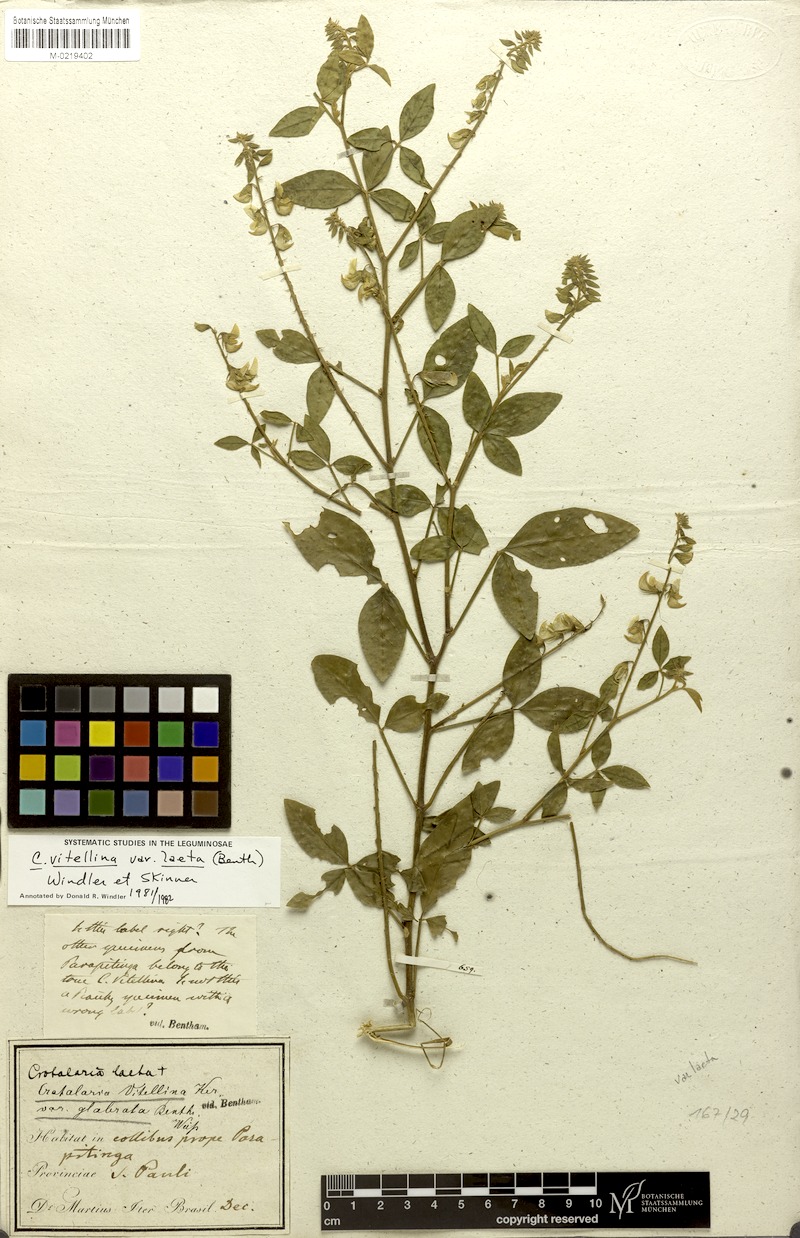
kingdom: Plantae
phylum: Tracheophyta
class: Magnoliopsida
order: Fabales
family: Fabaceae
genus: Crotalaria
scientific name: Crotalaria laeta
